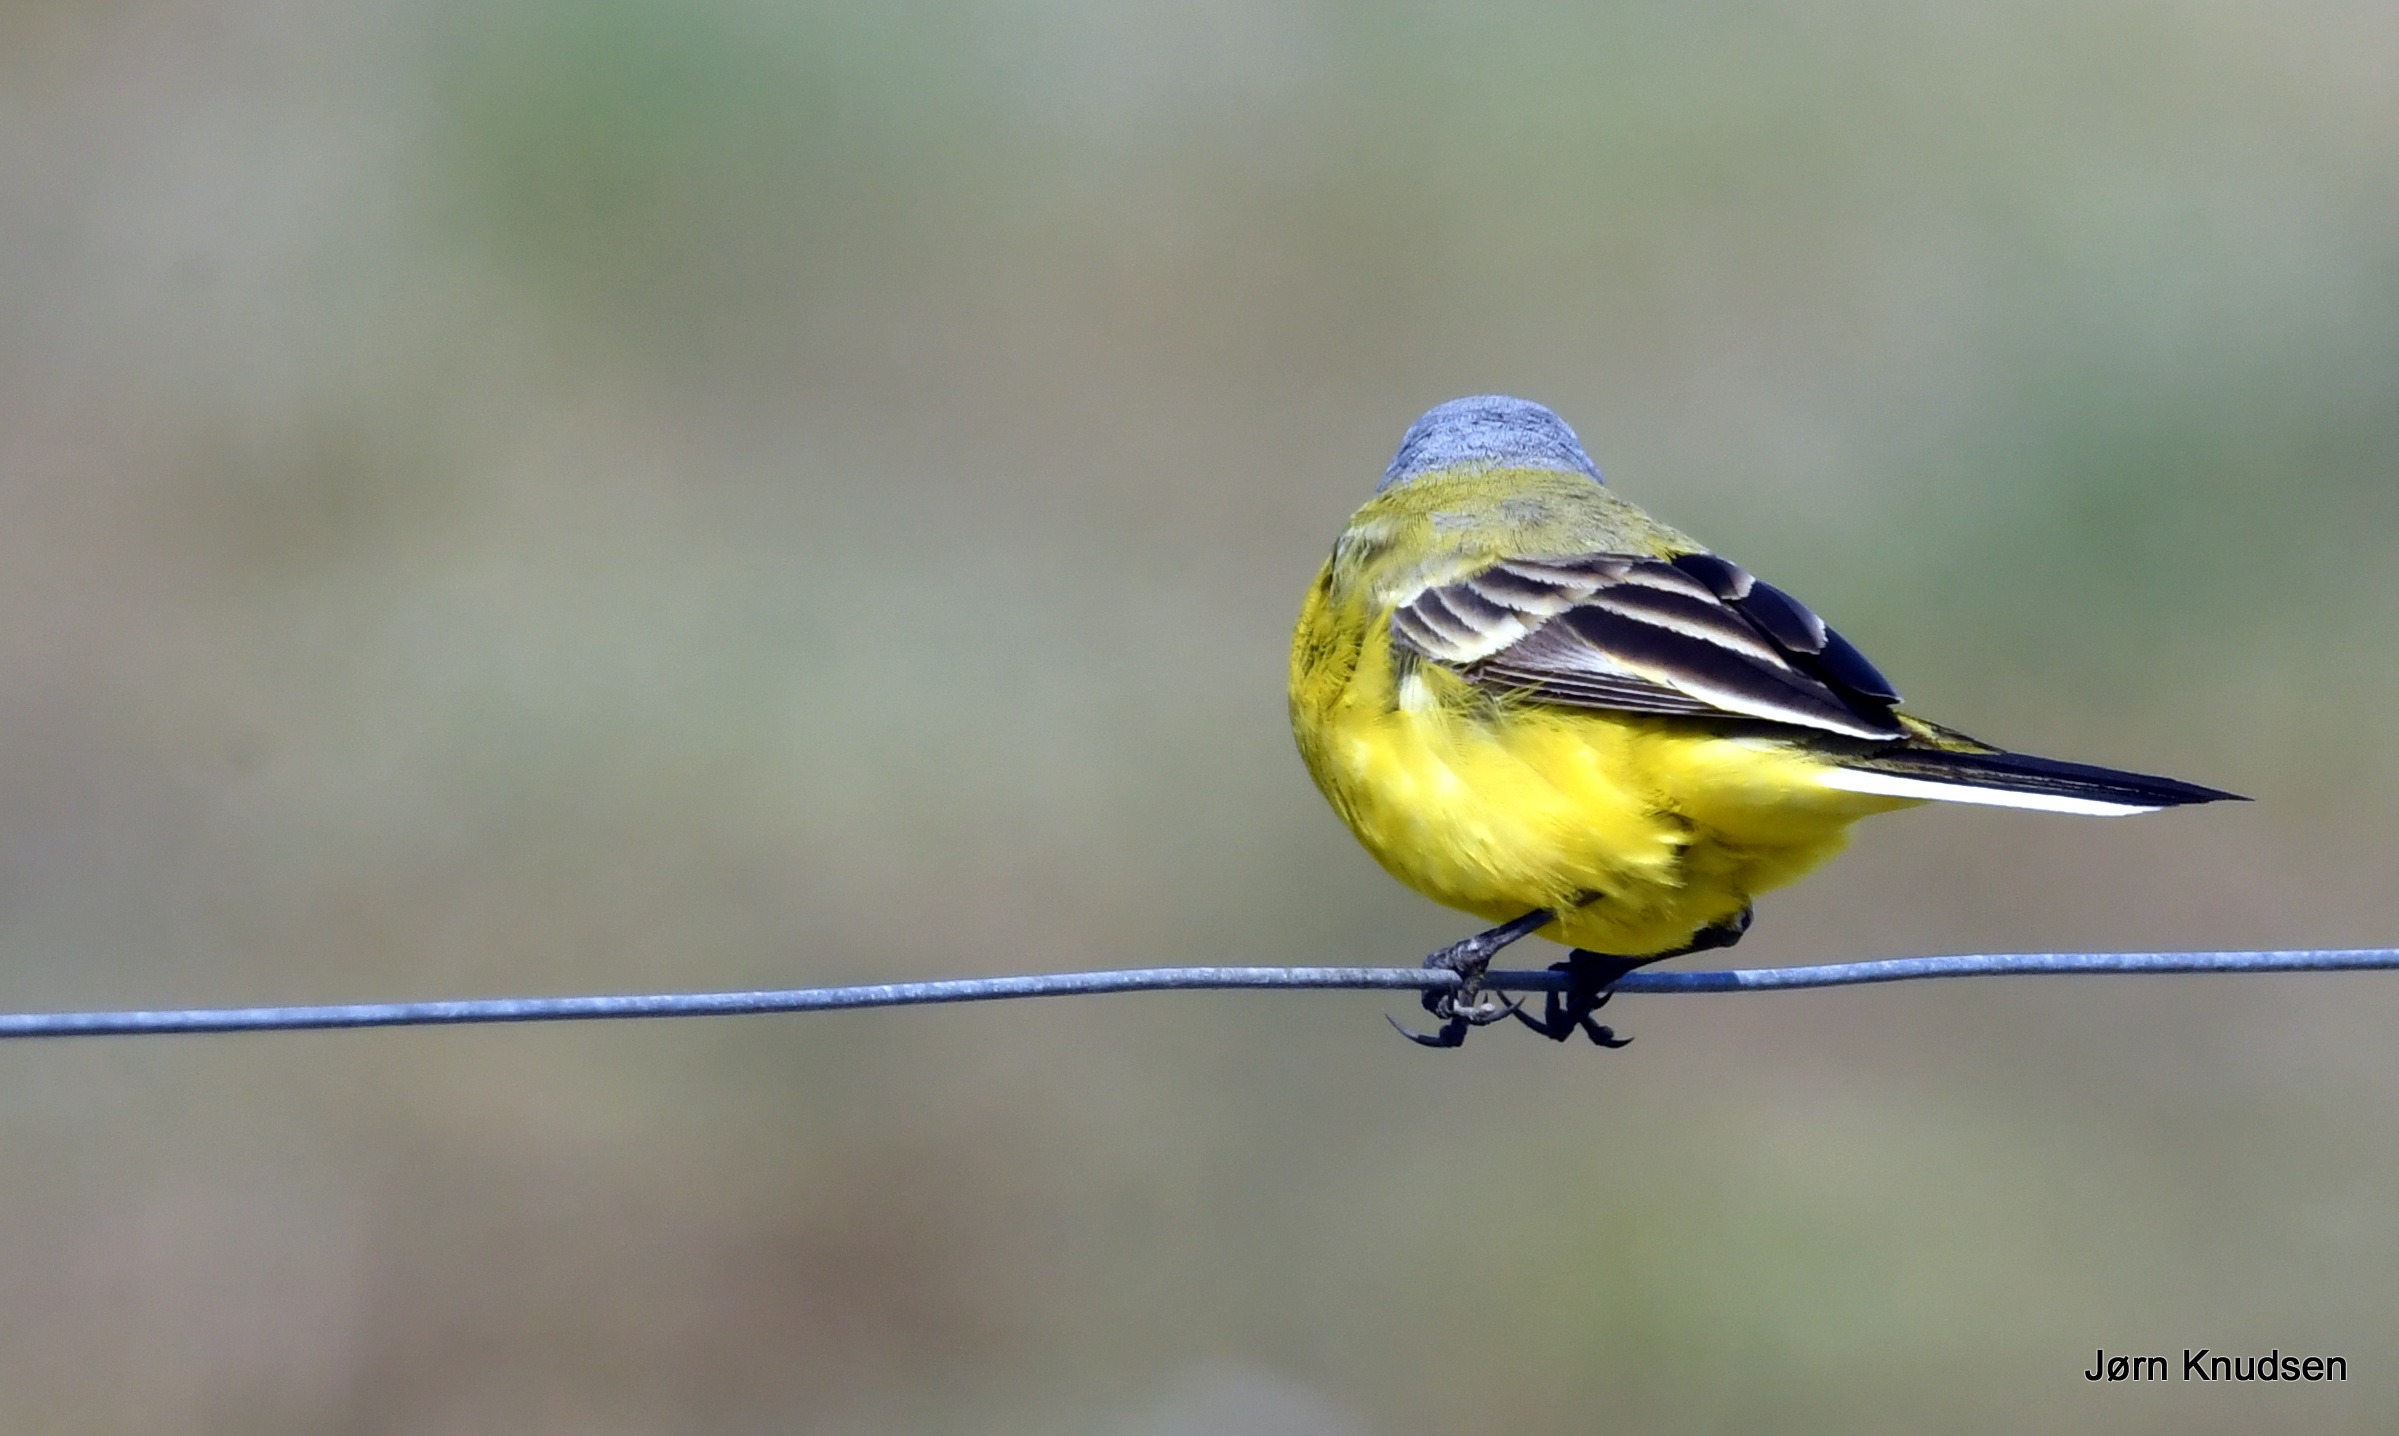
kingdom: Animalia
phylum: Chordata
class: Aves
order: Passeriformes
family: Motacillidae
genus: Motacilla
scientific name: Motacilla flava
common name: Gul vipstjert
